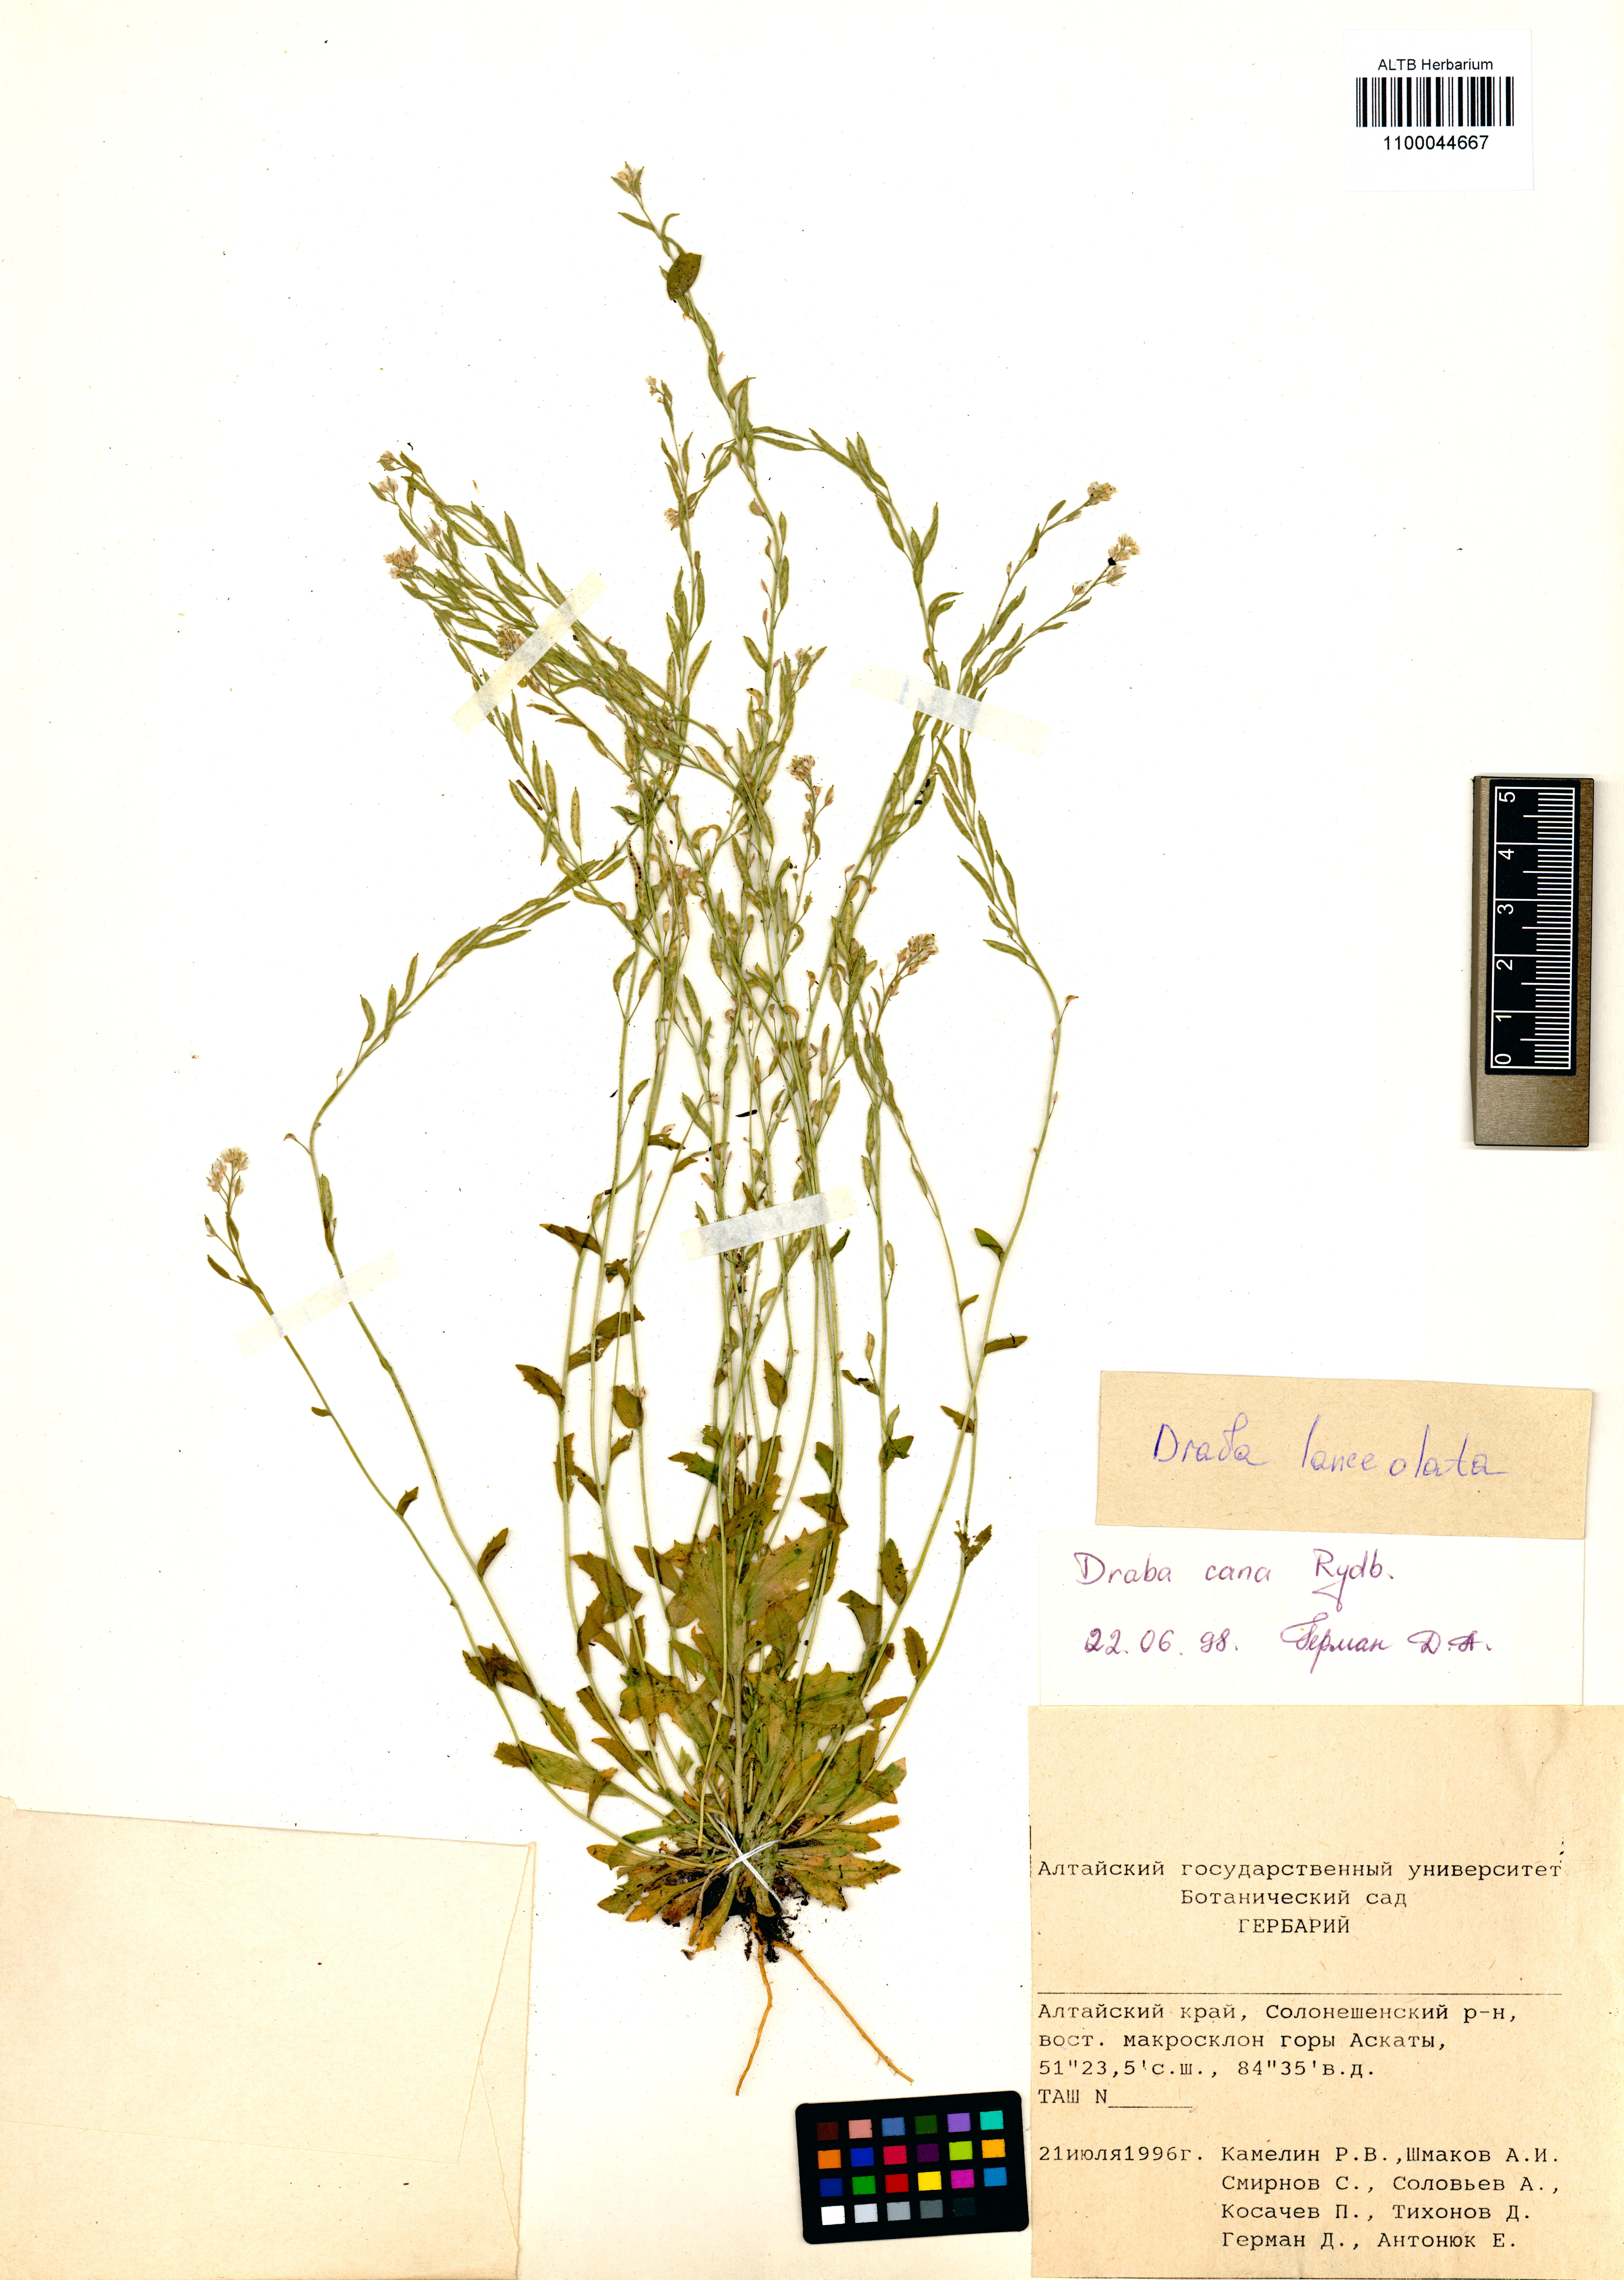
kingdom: Plantae
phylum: Tracheophyta
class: Magnoliopsida
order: Brassicales
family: Brassicaceae
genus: Draba
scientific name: Draba lanceolata
